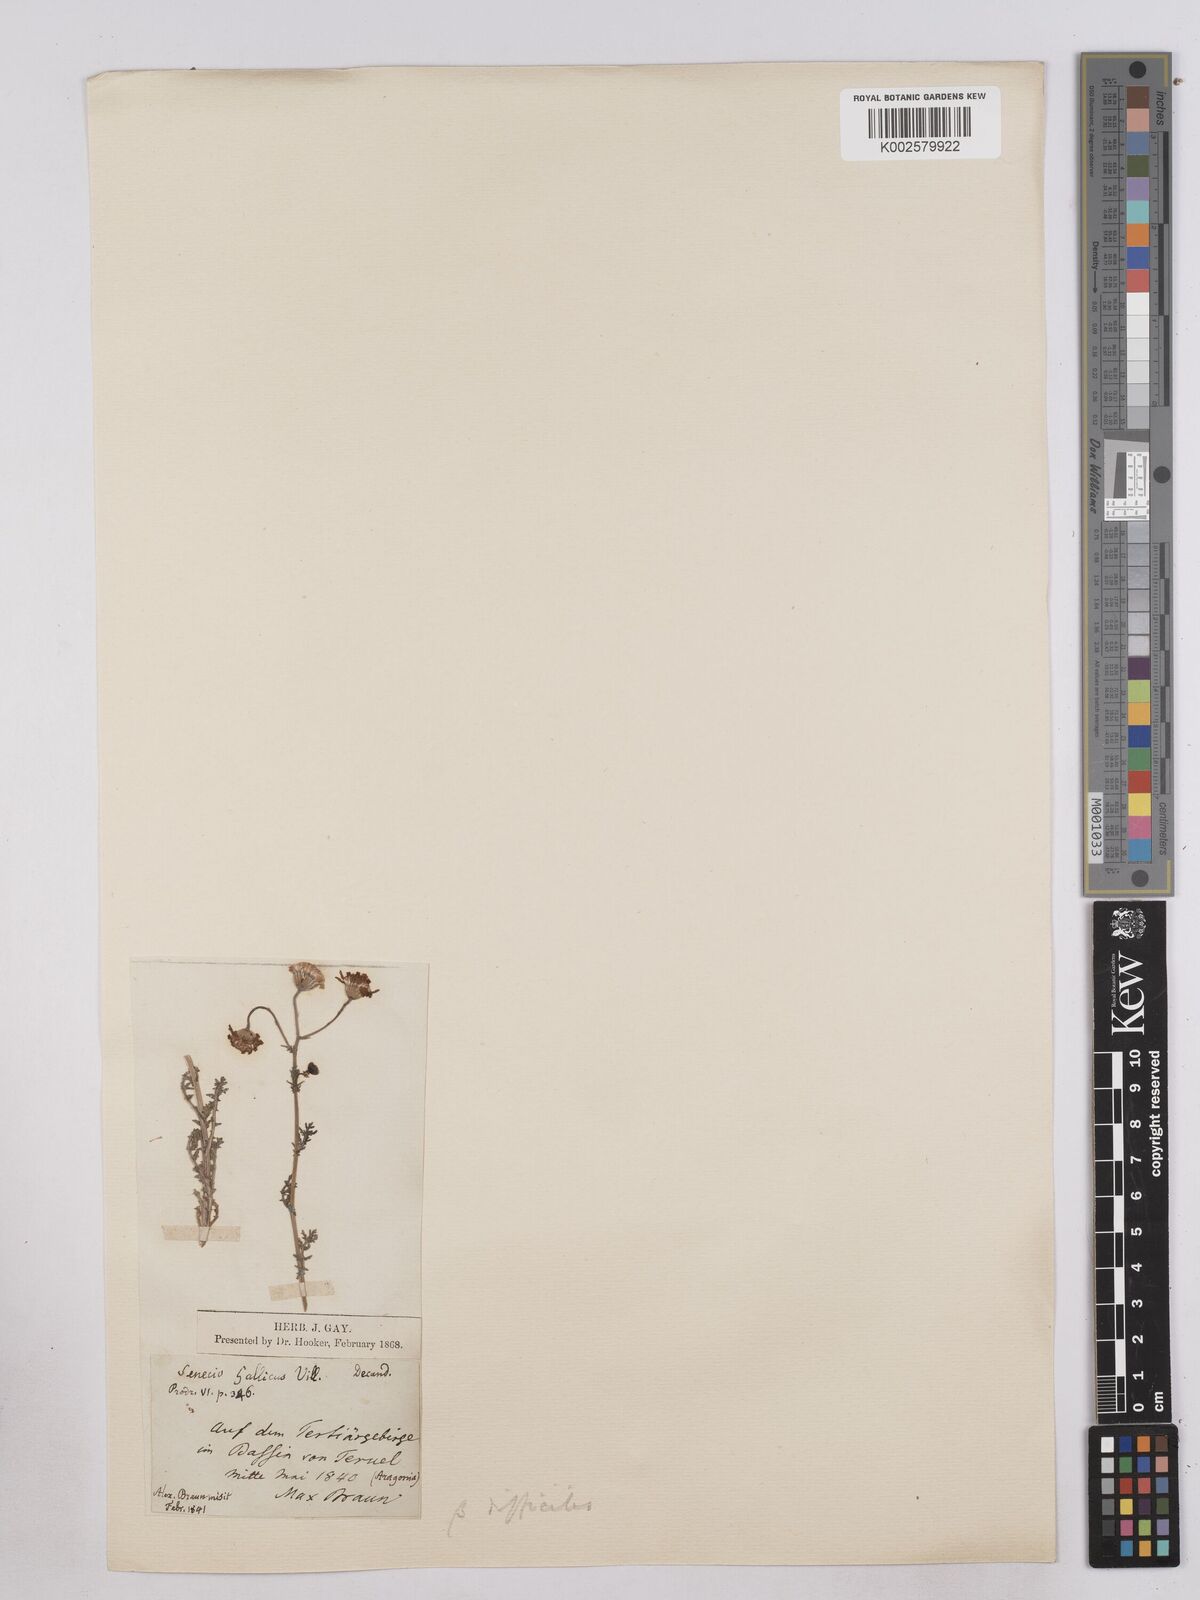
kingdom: Plantae
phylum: Tracheophyta
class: Magnoliopsida
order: Asterales
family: Asteraceae
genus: Senecio
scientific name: Senecio gallicus
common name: French groundsel
